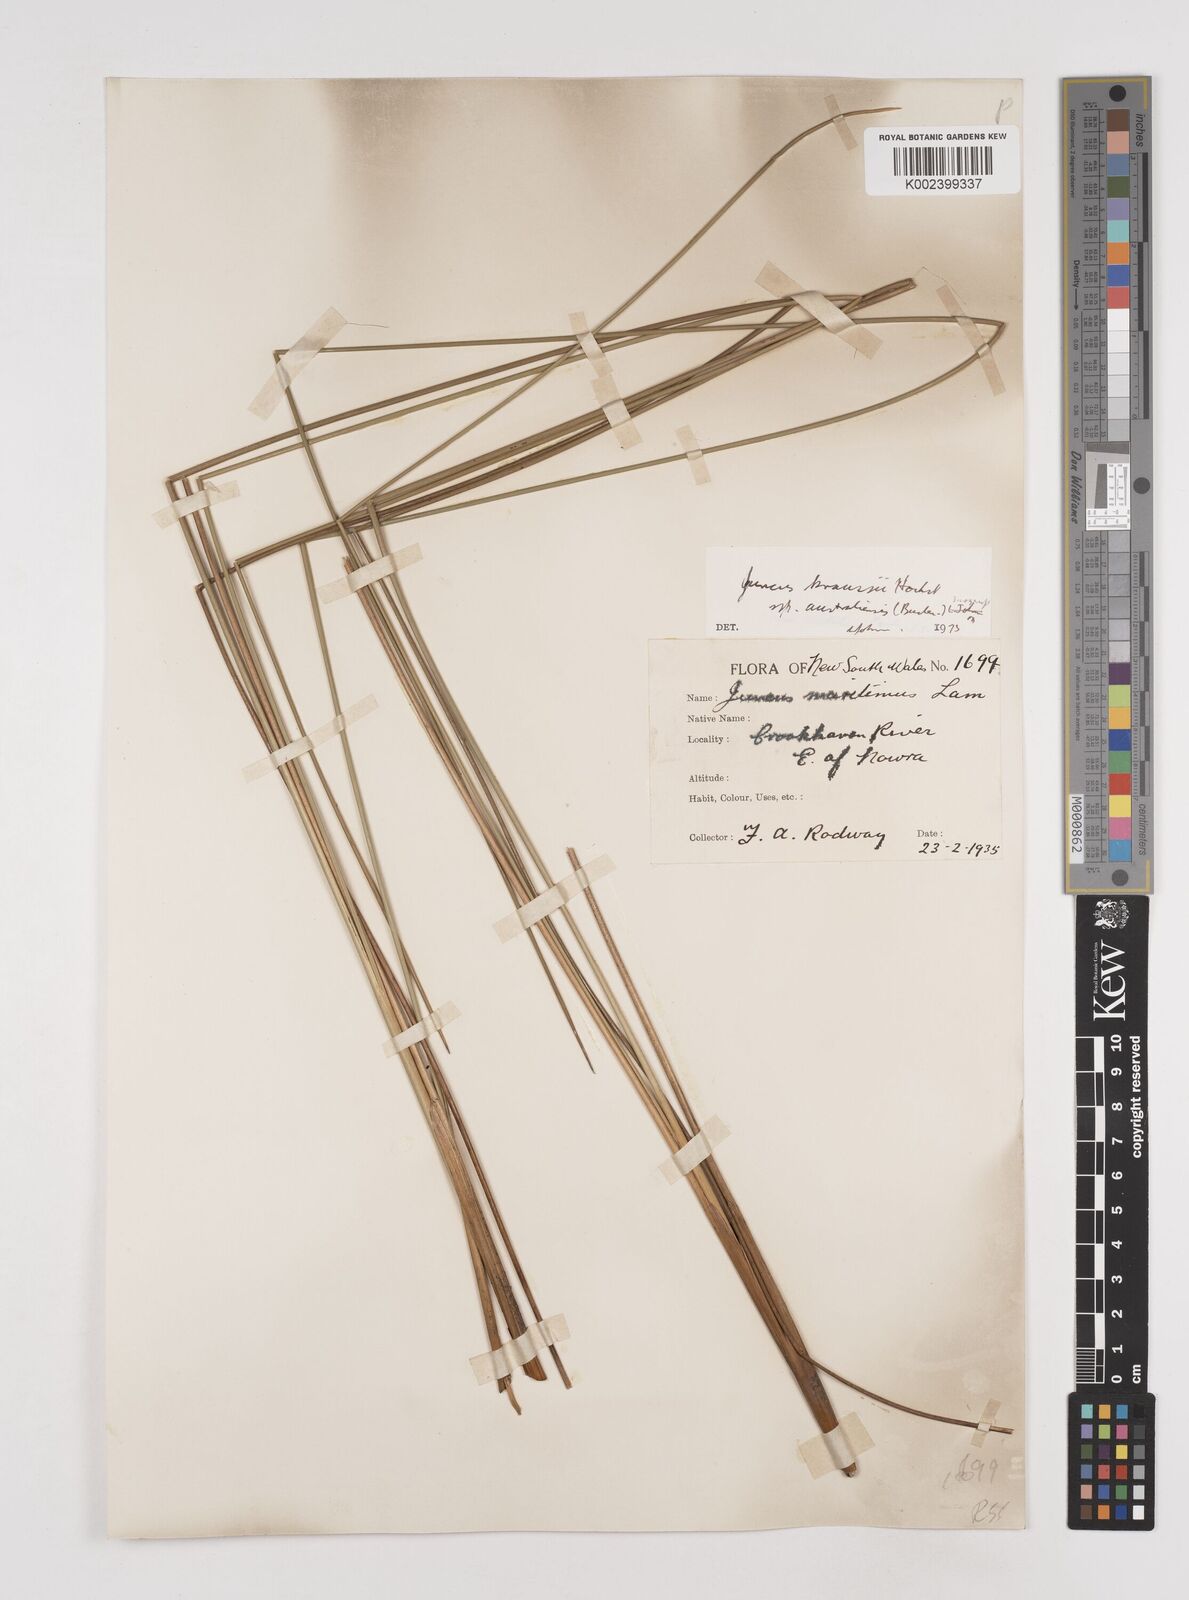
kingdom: Plantae
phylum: Tracheophyta
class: Liliopsida
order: Poales
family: Juncaceae
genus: Juncus
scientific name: Juncus kraussii
